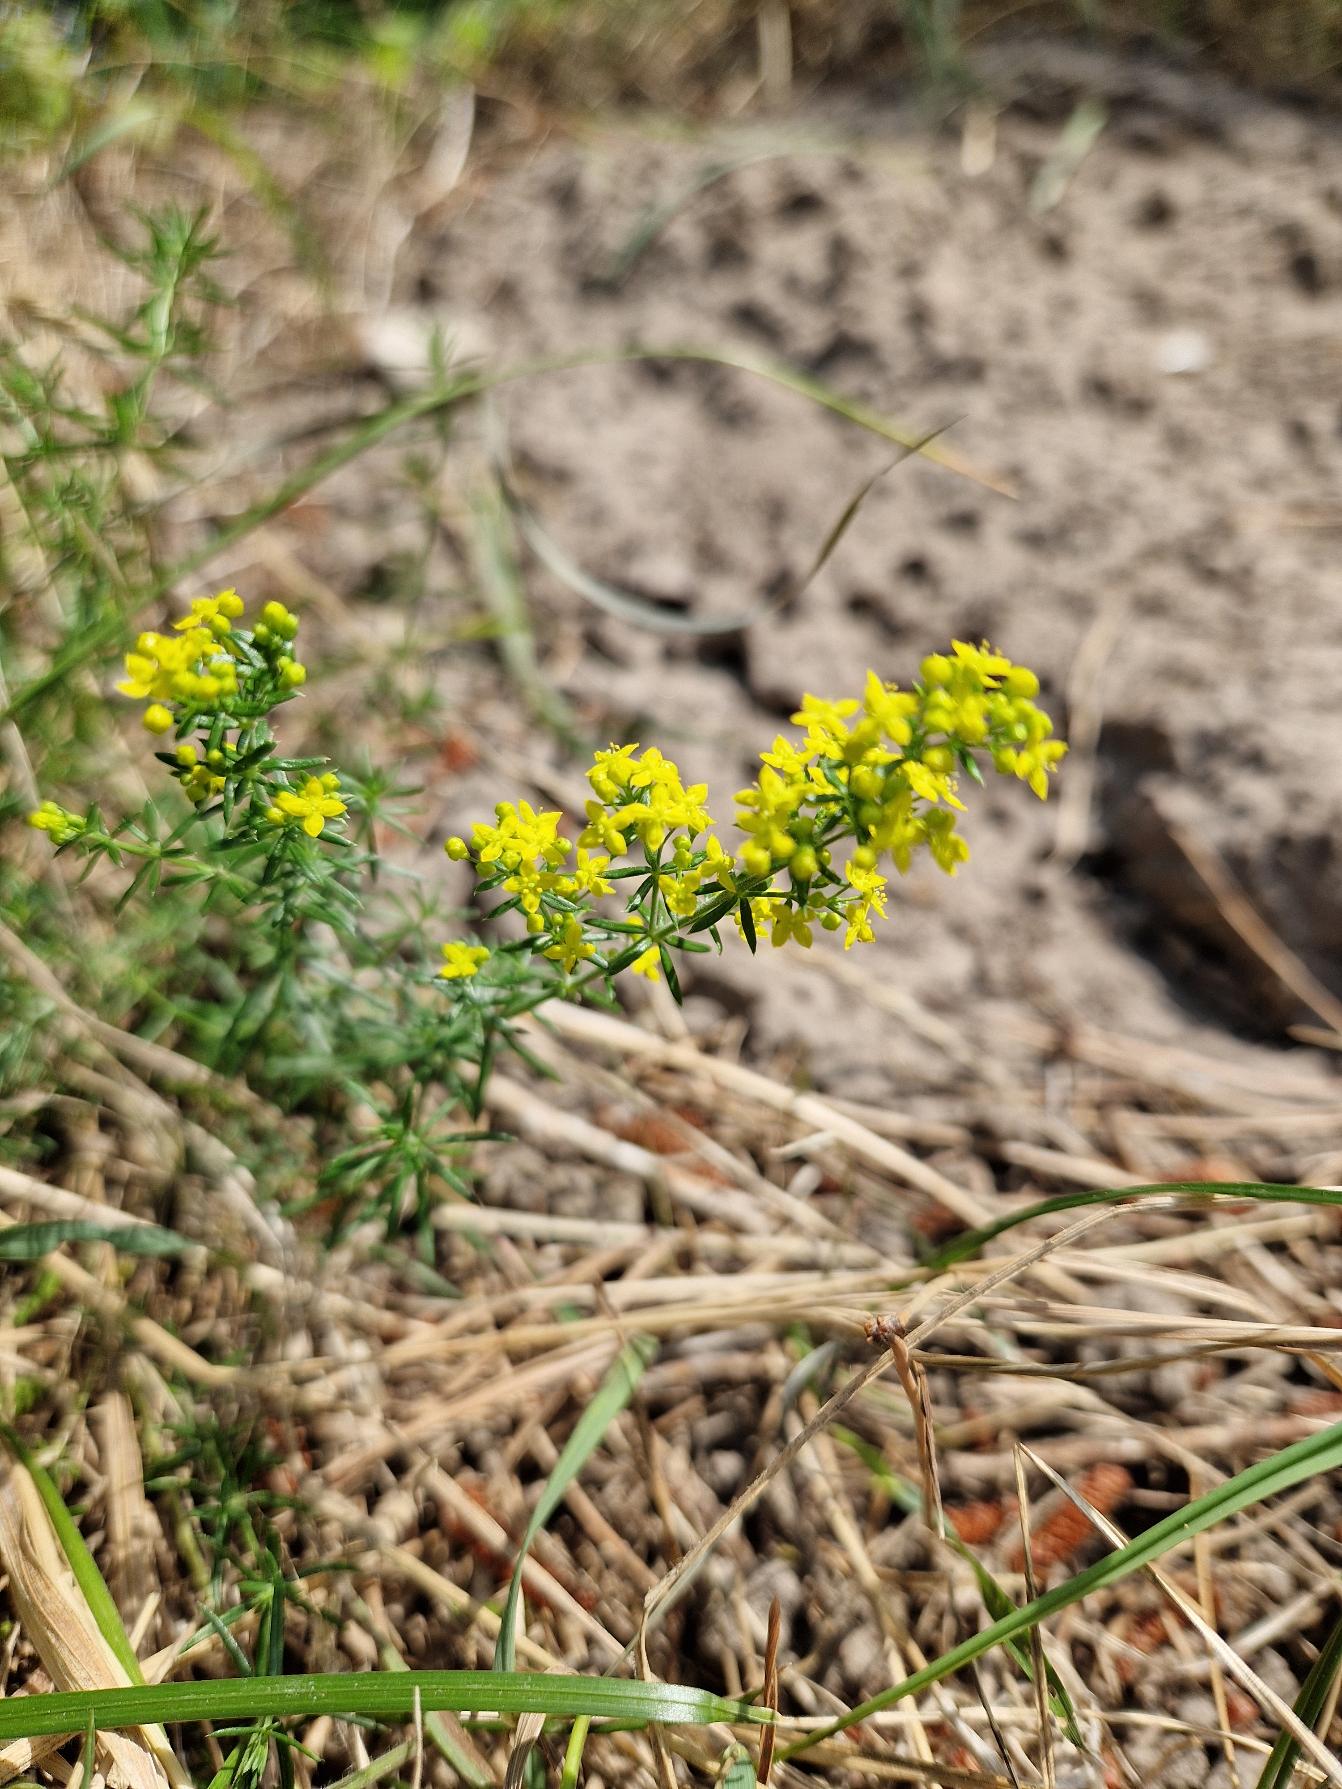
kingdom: Plantae
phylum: Tracheophyta
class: Magnoliopsida
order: Gentianales
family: Rubiaceae
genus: Galium
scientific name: Galium verum
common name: Gul snerre
